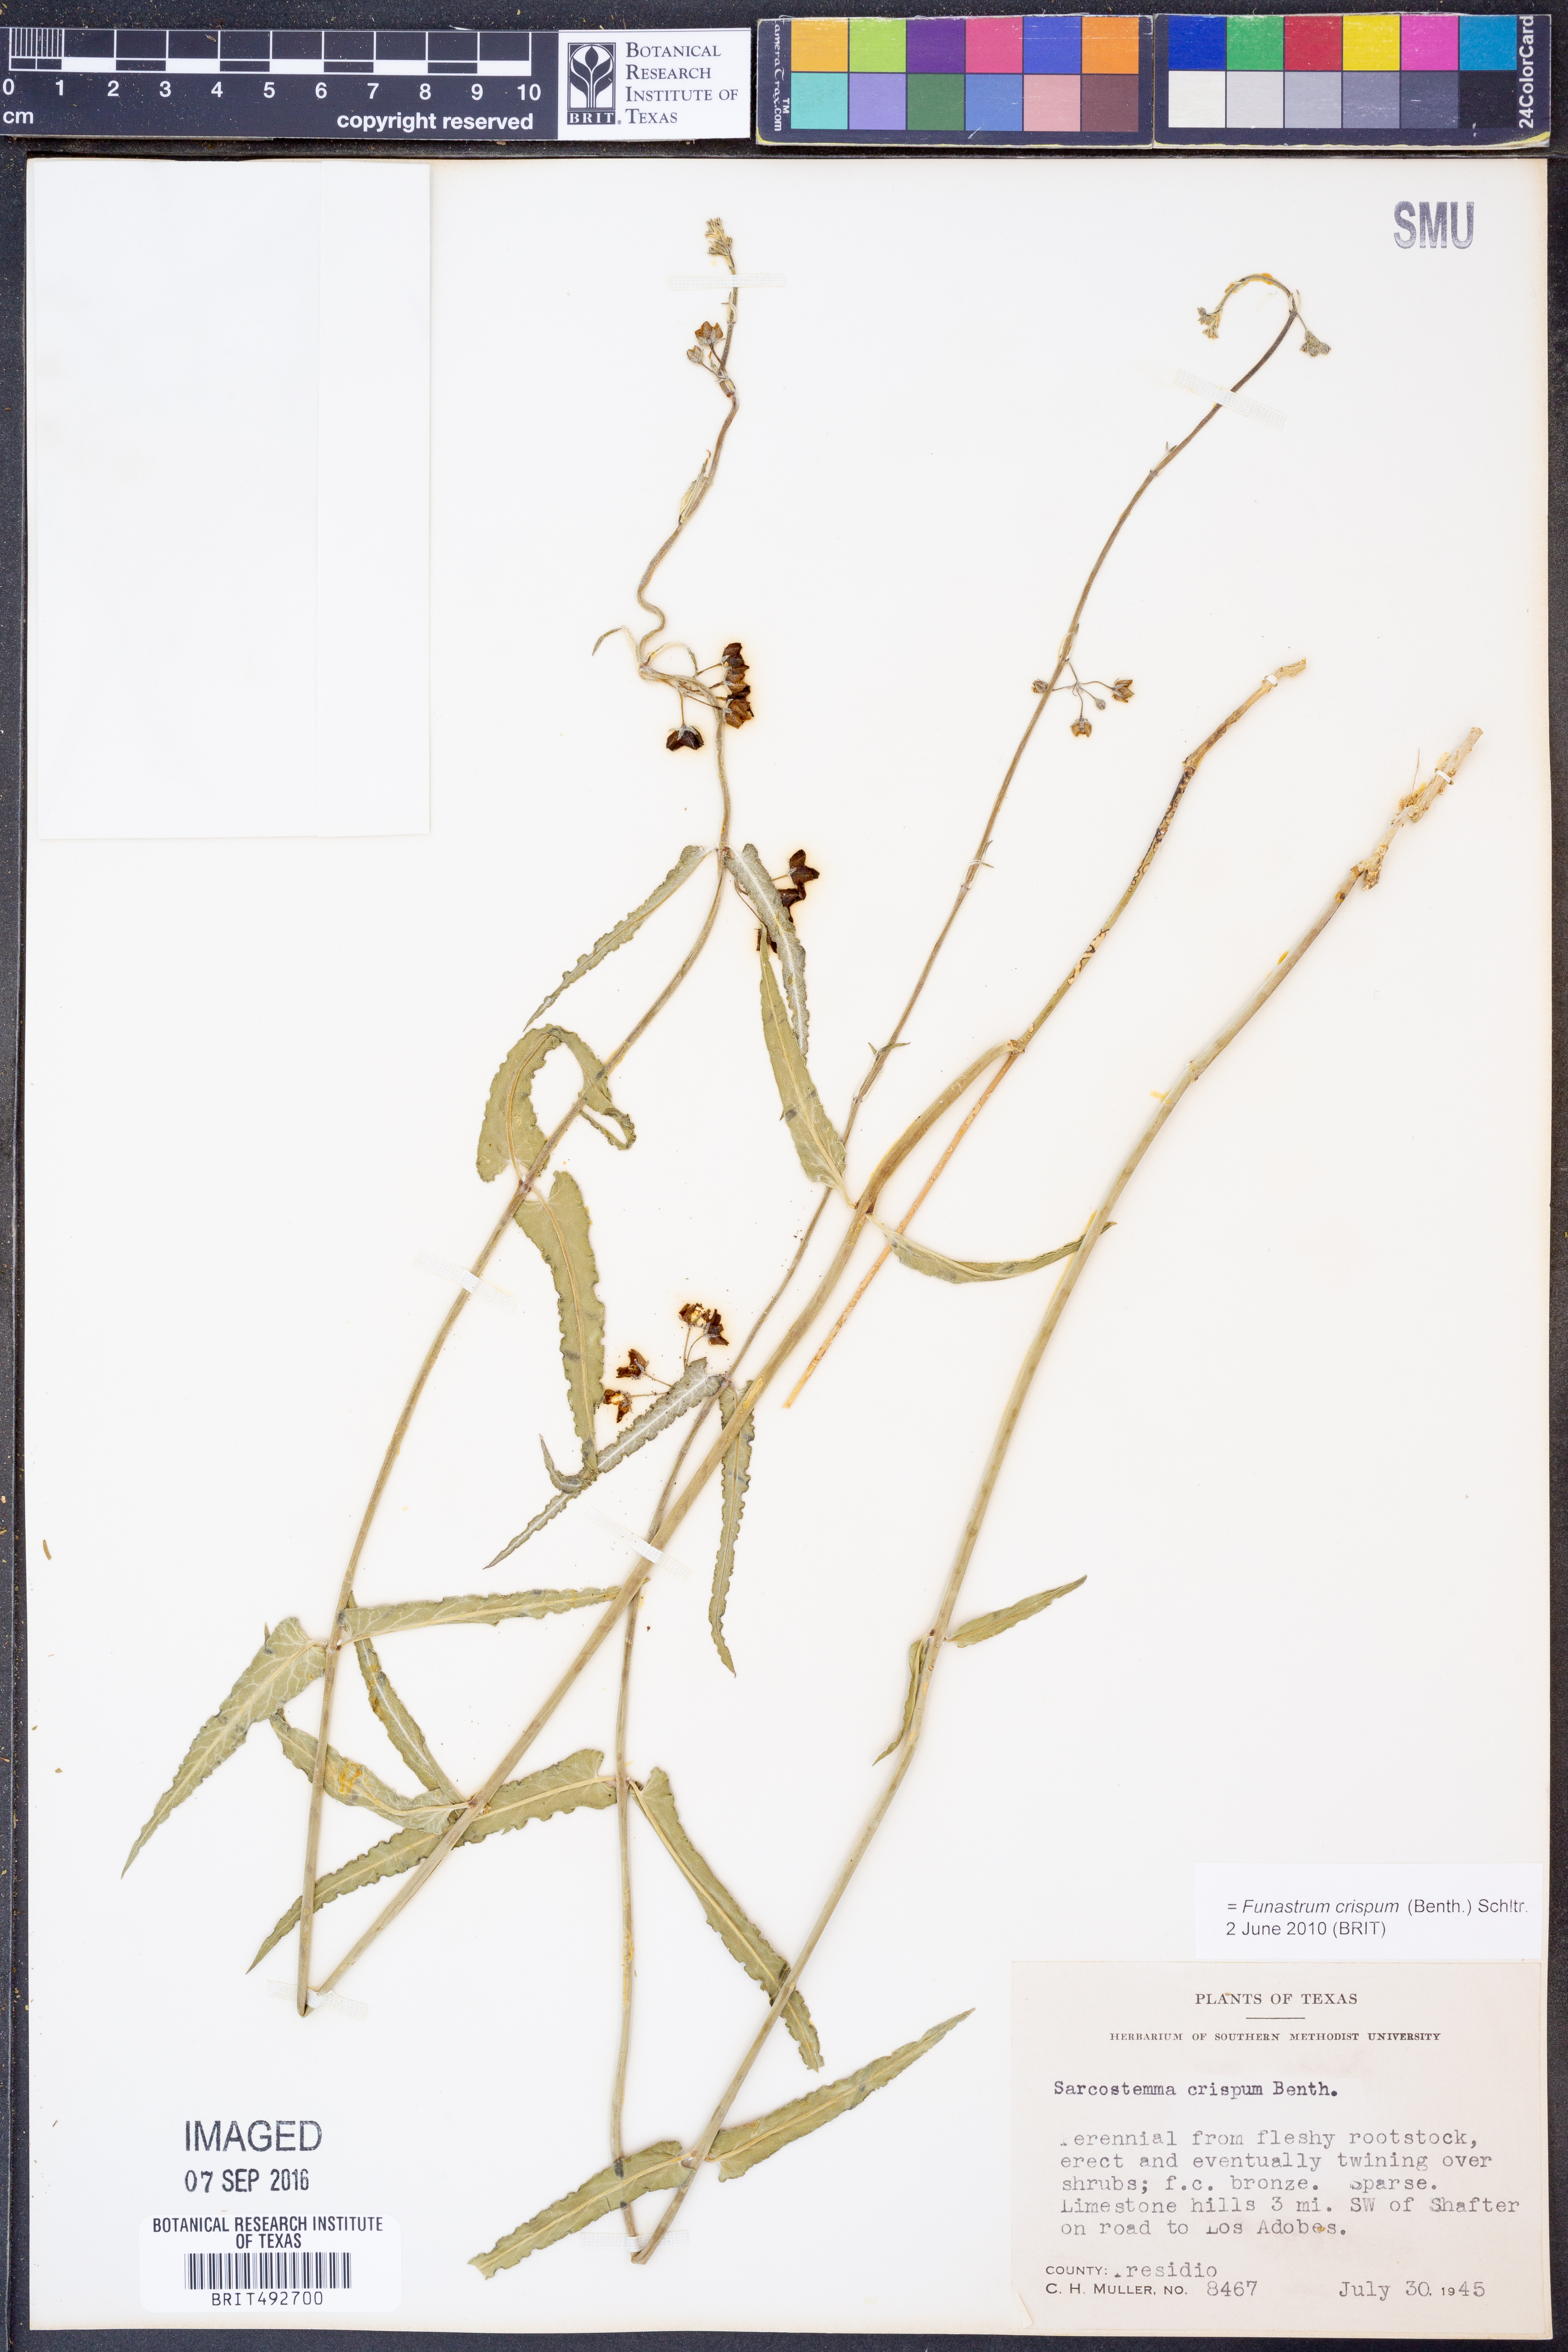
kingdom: Plantae
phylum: Tracheophyta
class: Magnoliopsida
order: Gentianales
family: Apocynaceae
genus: Funastrum
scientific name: Funastrum crispum
